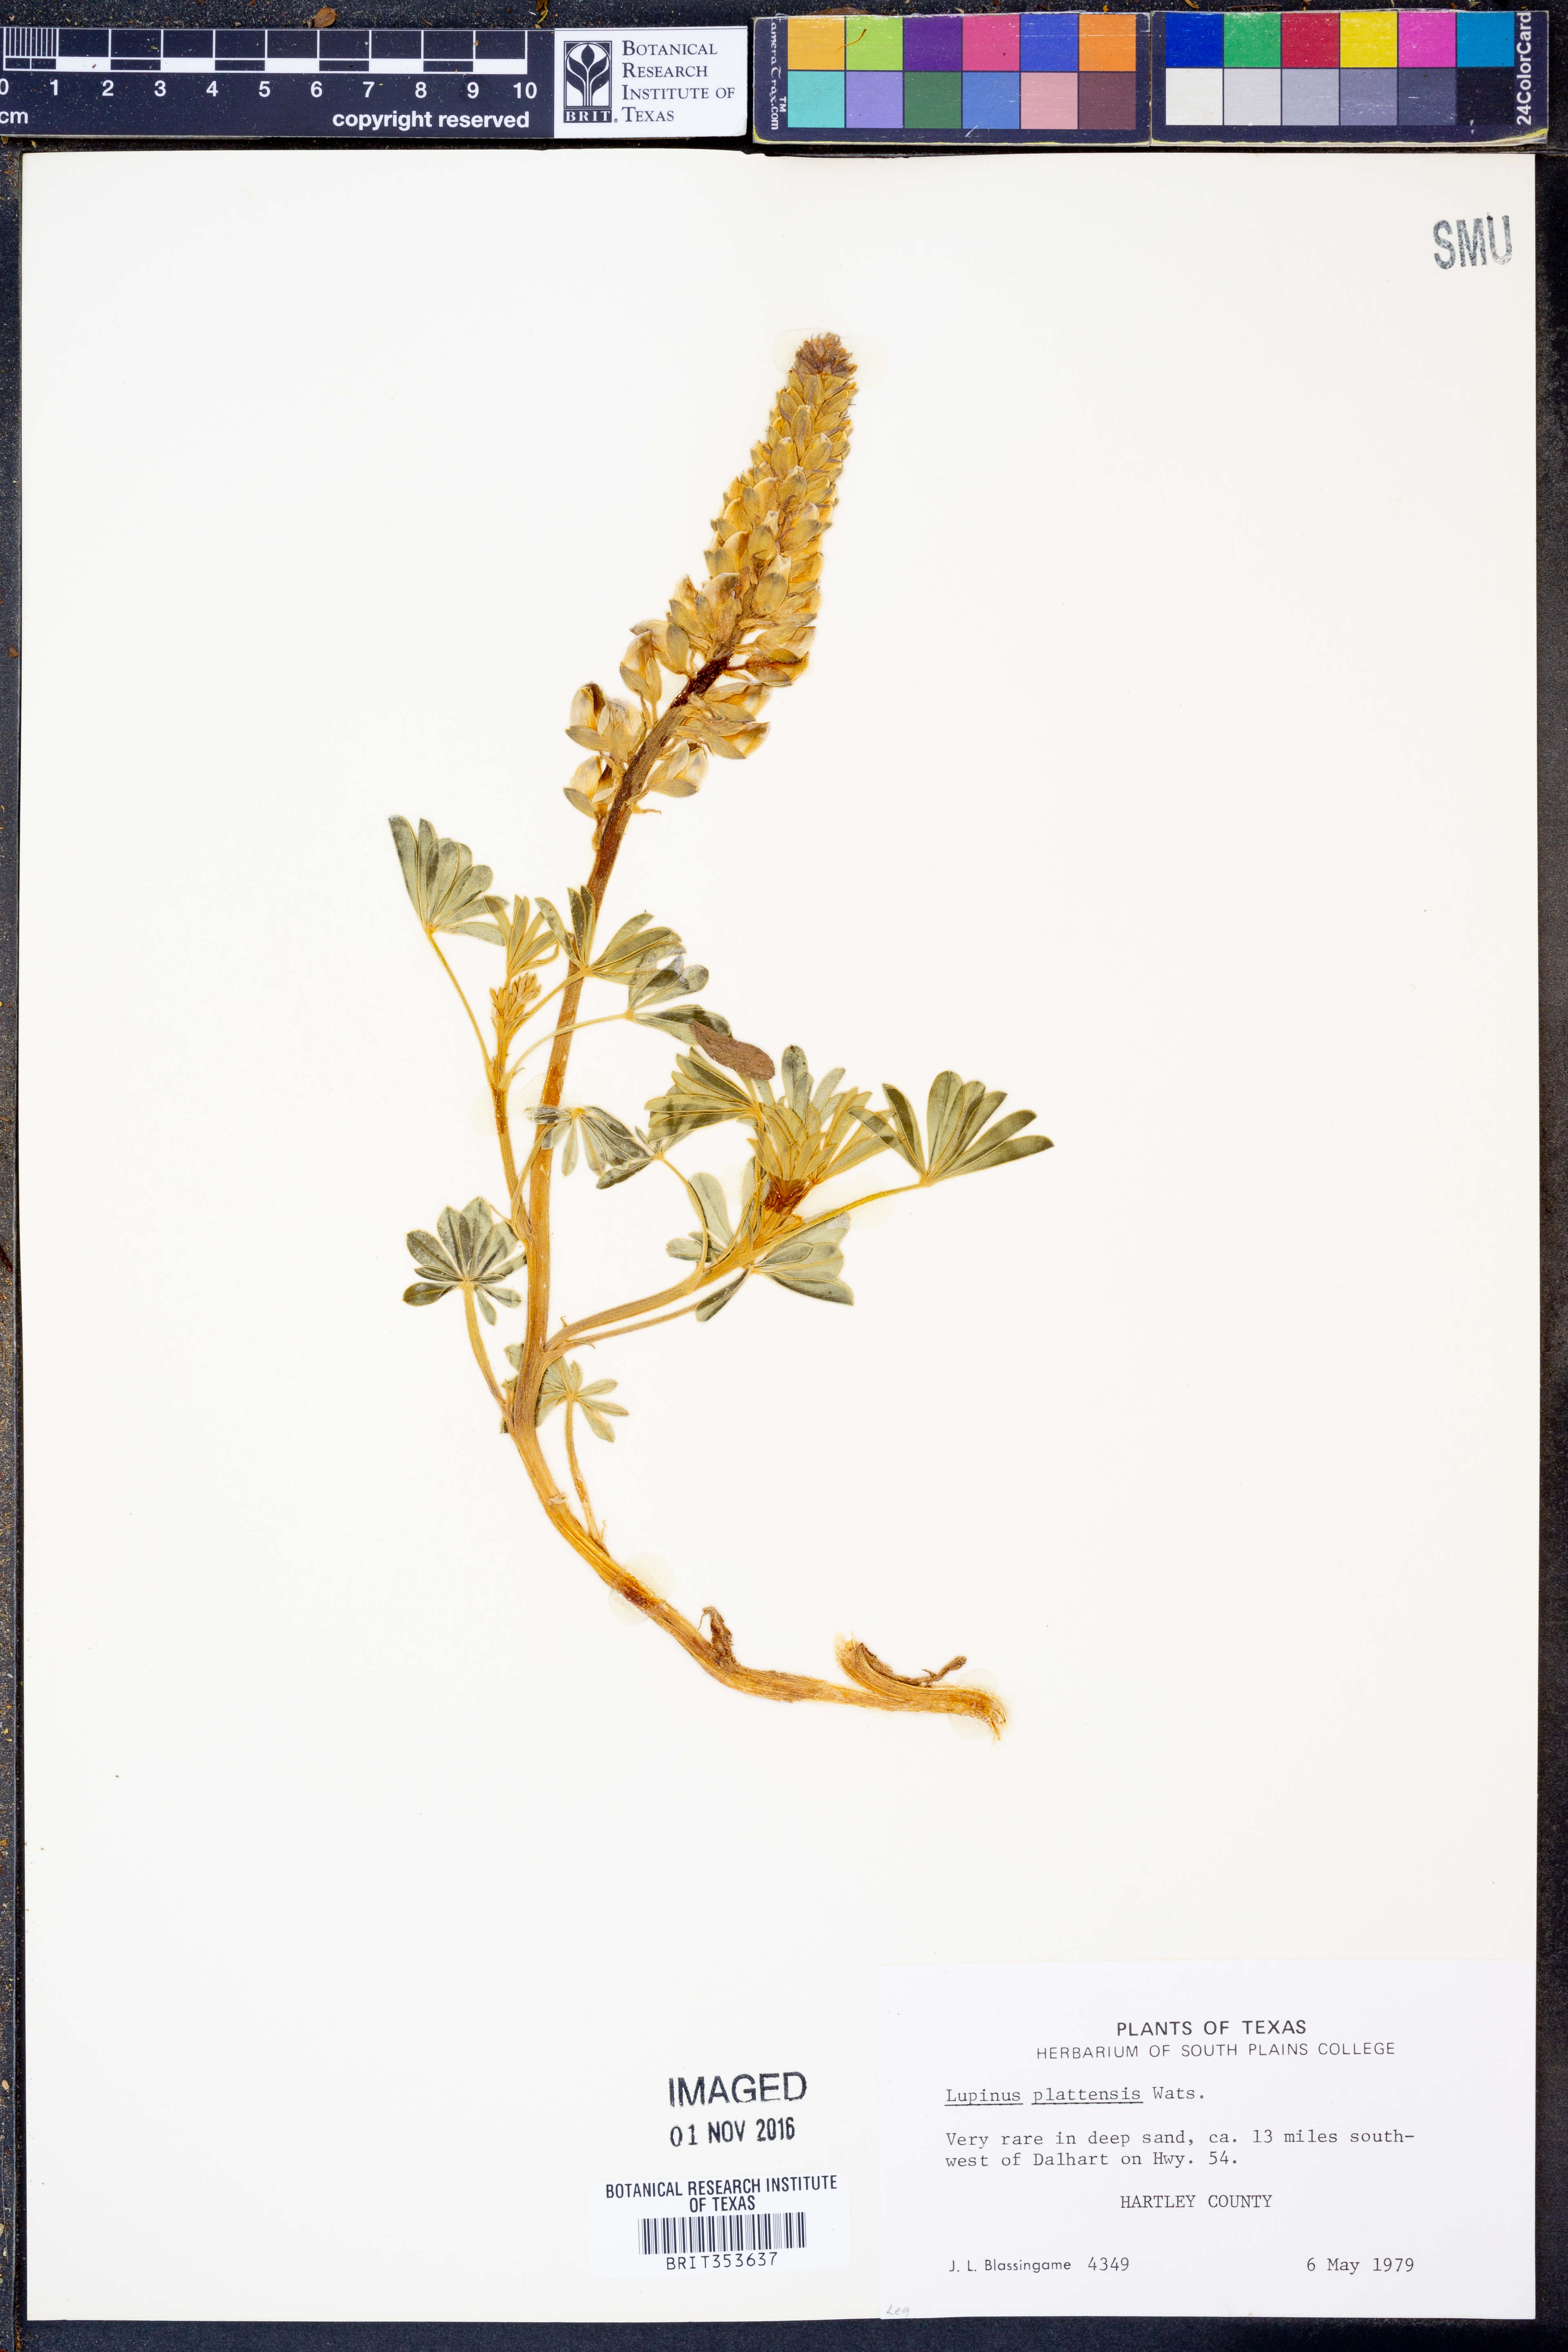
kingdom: Plantae
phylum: Tracheophyta
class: Magnoliopsida
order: Fabales
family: Fabaceae
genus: Lupinus
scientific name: Lupinus plattensis
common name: Platte lupine
